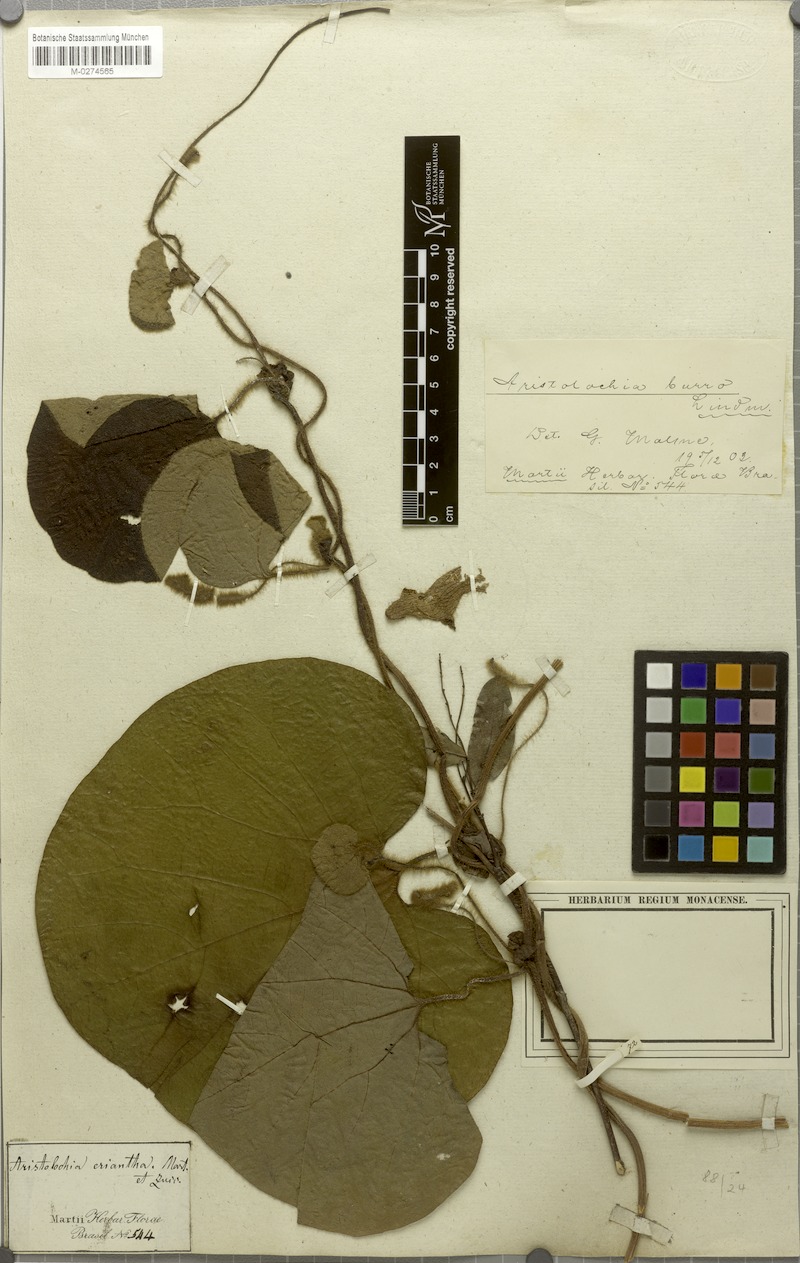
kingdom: Plantae
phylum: Tracheophyta
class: Magnoliopsida
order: Piperales
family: Aristolochiaceae
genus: Aristolochia
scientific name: Aristolochia burro
